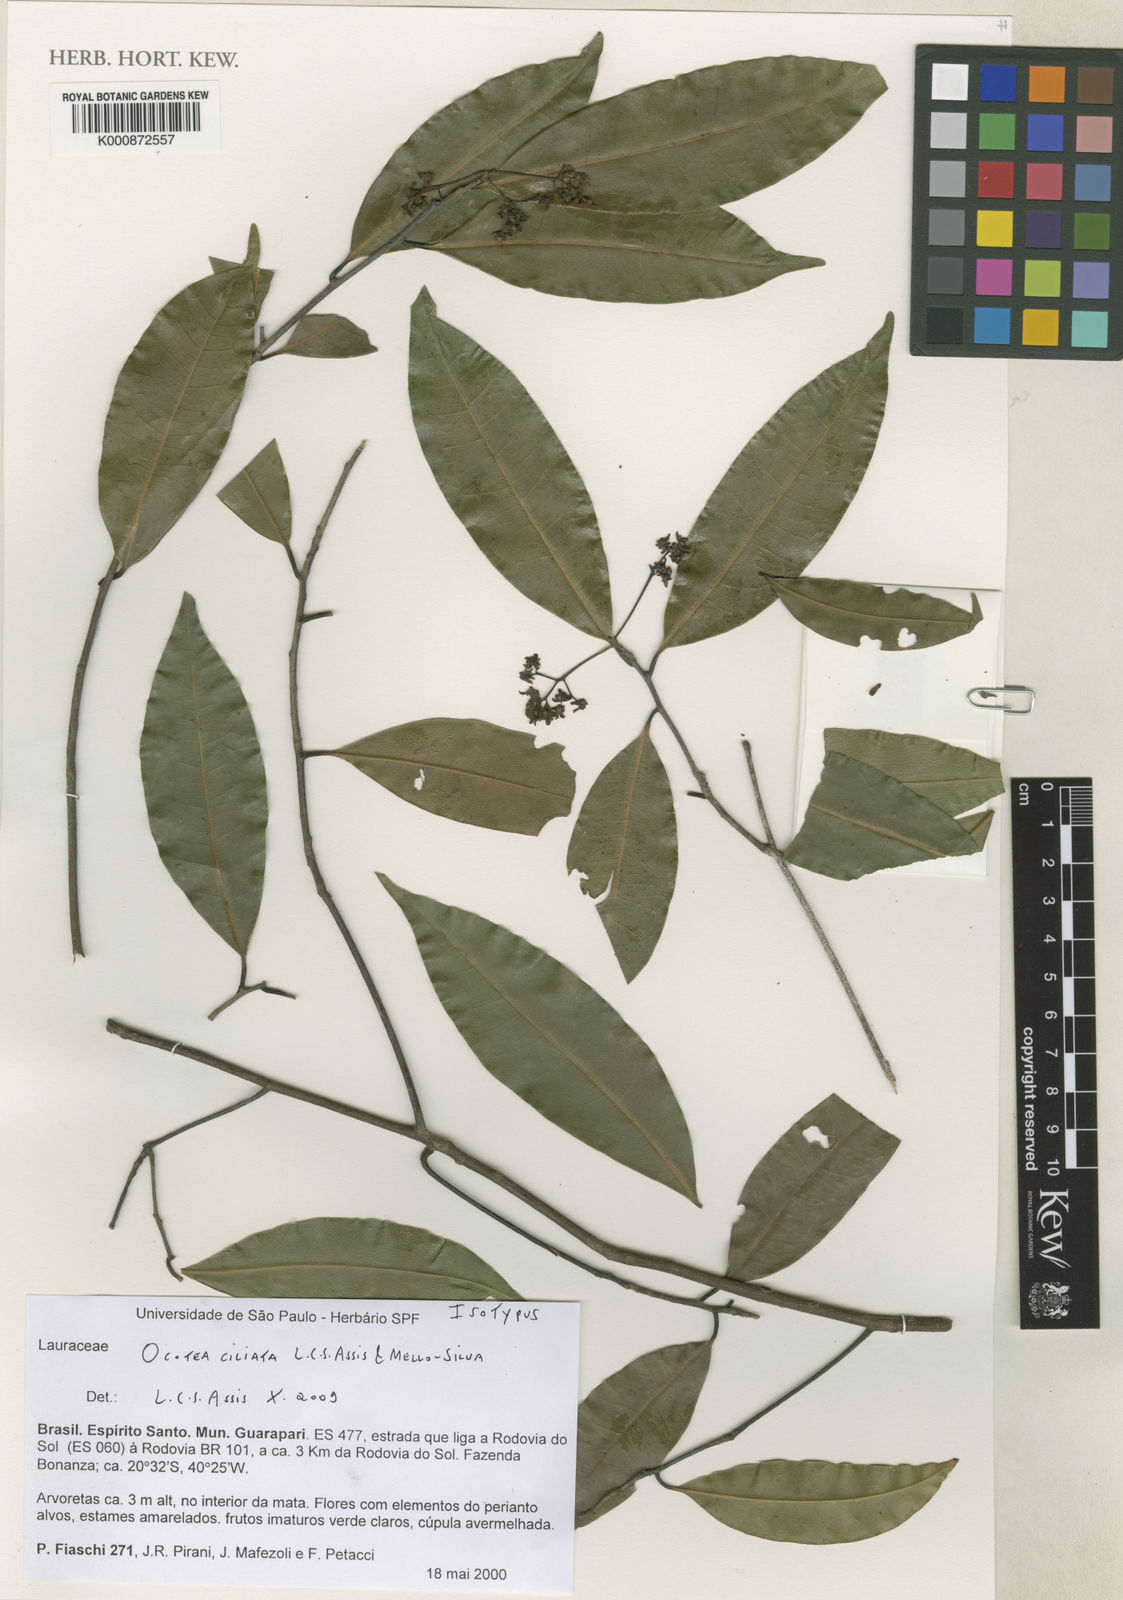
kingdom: Plantae
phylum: Tracheophyta
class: Magnoliopsida
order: Laurales
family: Lauraceae
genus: Ocotea
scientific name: Ocotea ciliata
